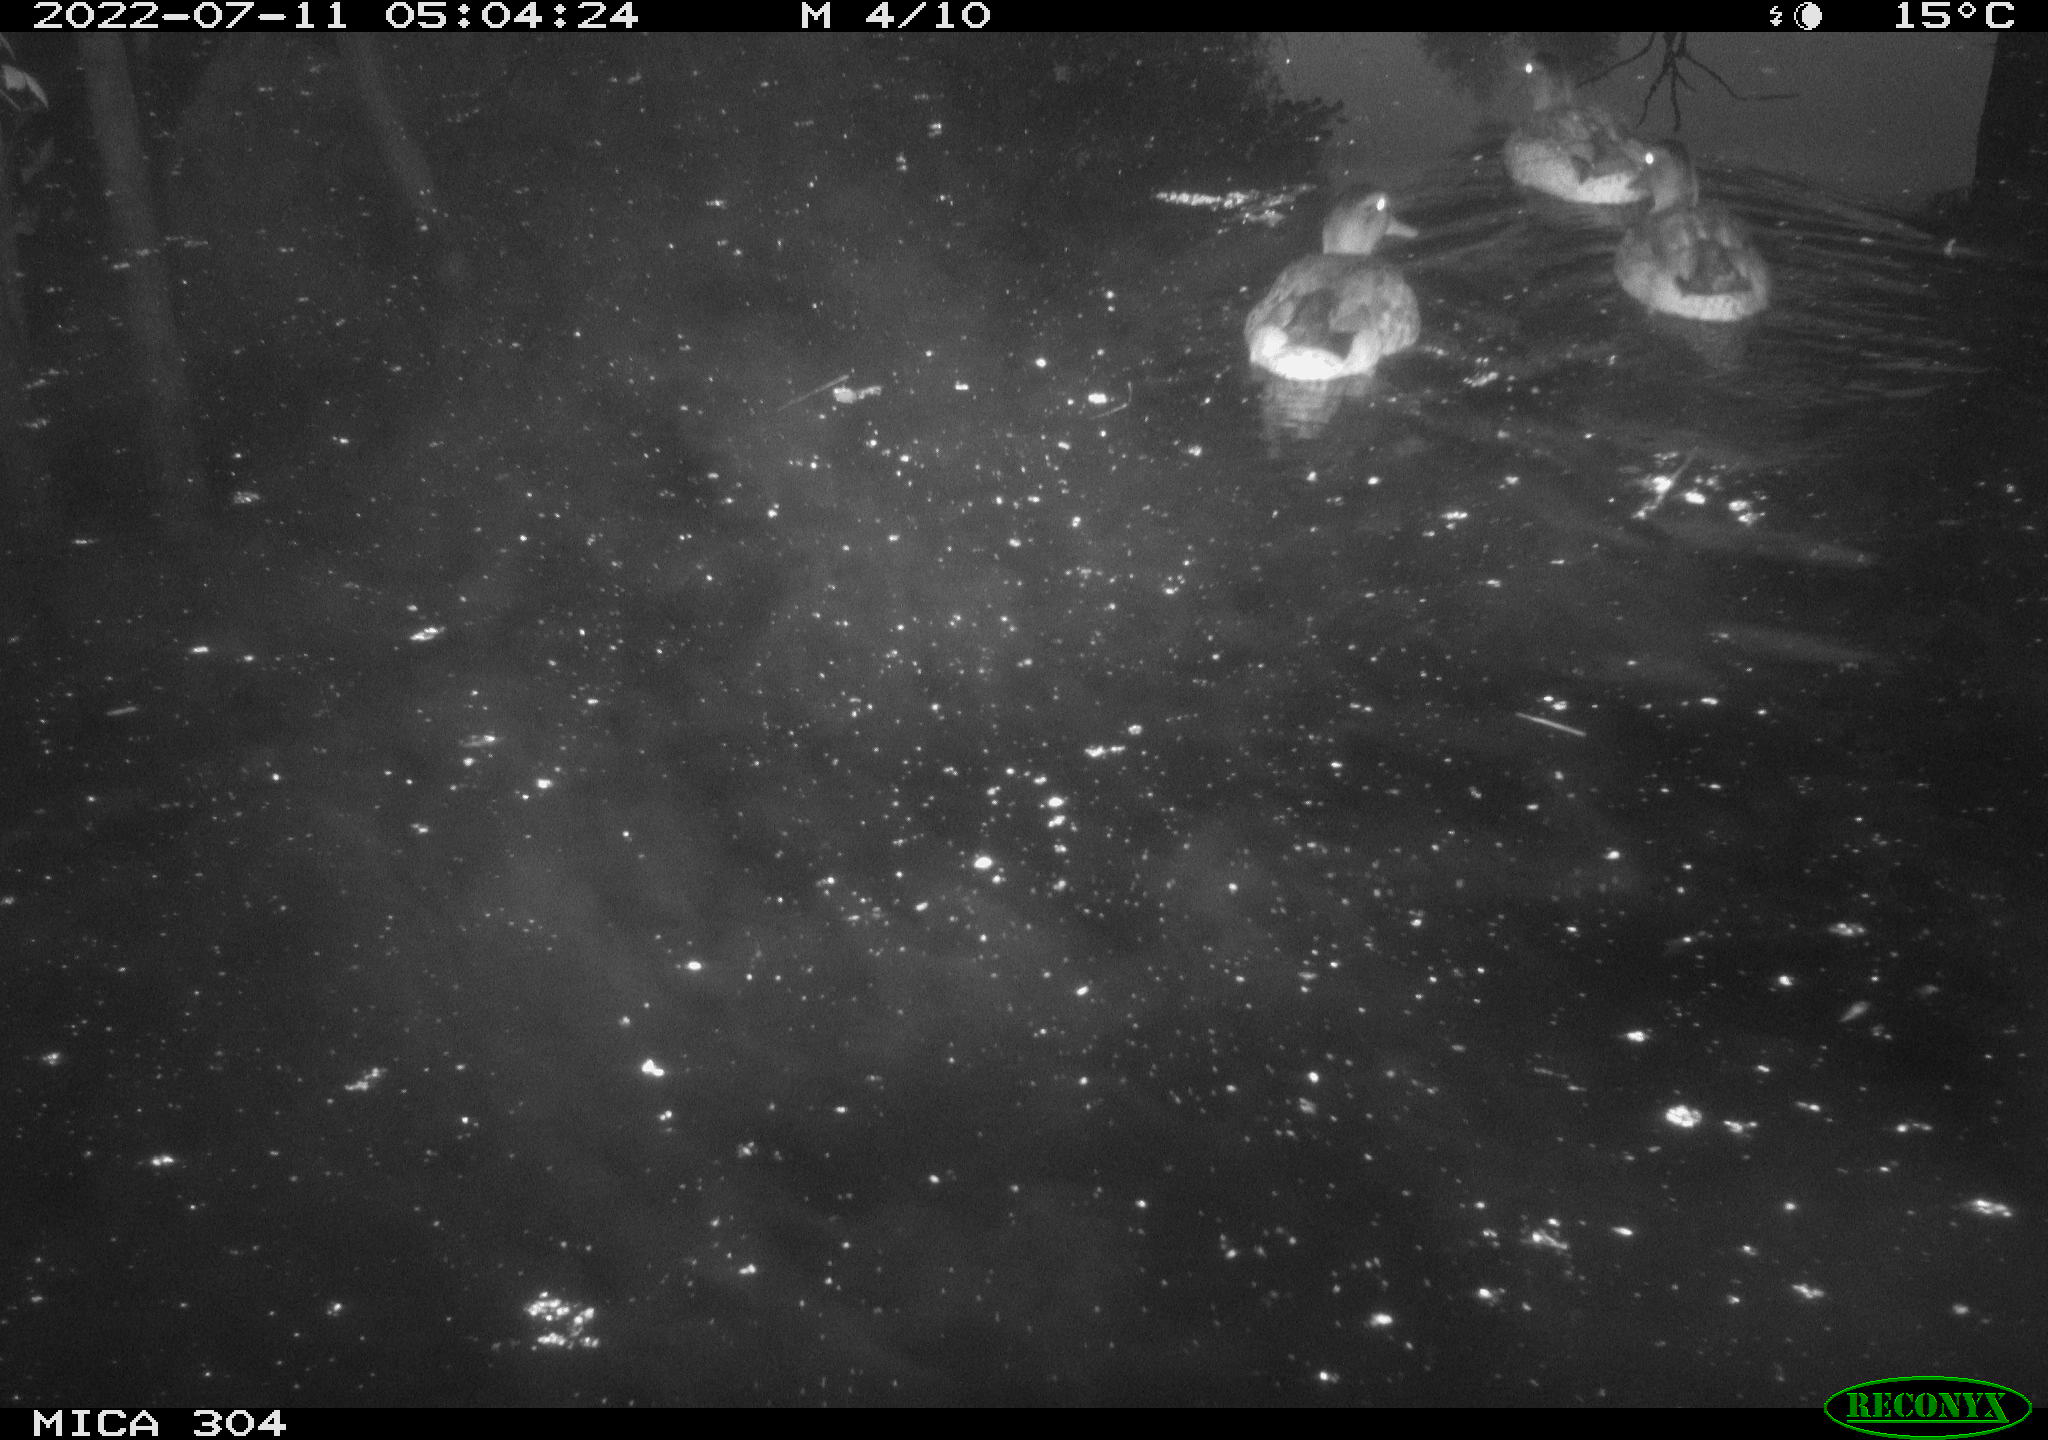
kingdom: Animalia
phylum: Chordata
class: Aves
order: Anseriformes
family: Anatidae
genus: Mareca
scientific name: Mareca strepera
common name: Gadwall
